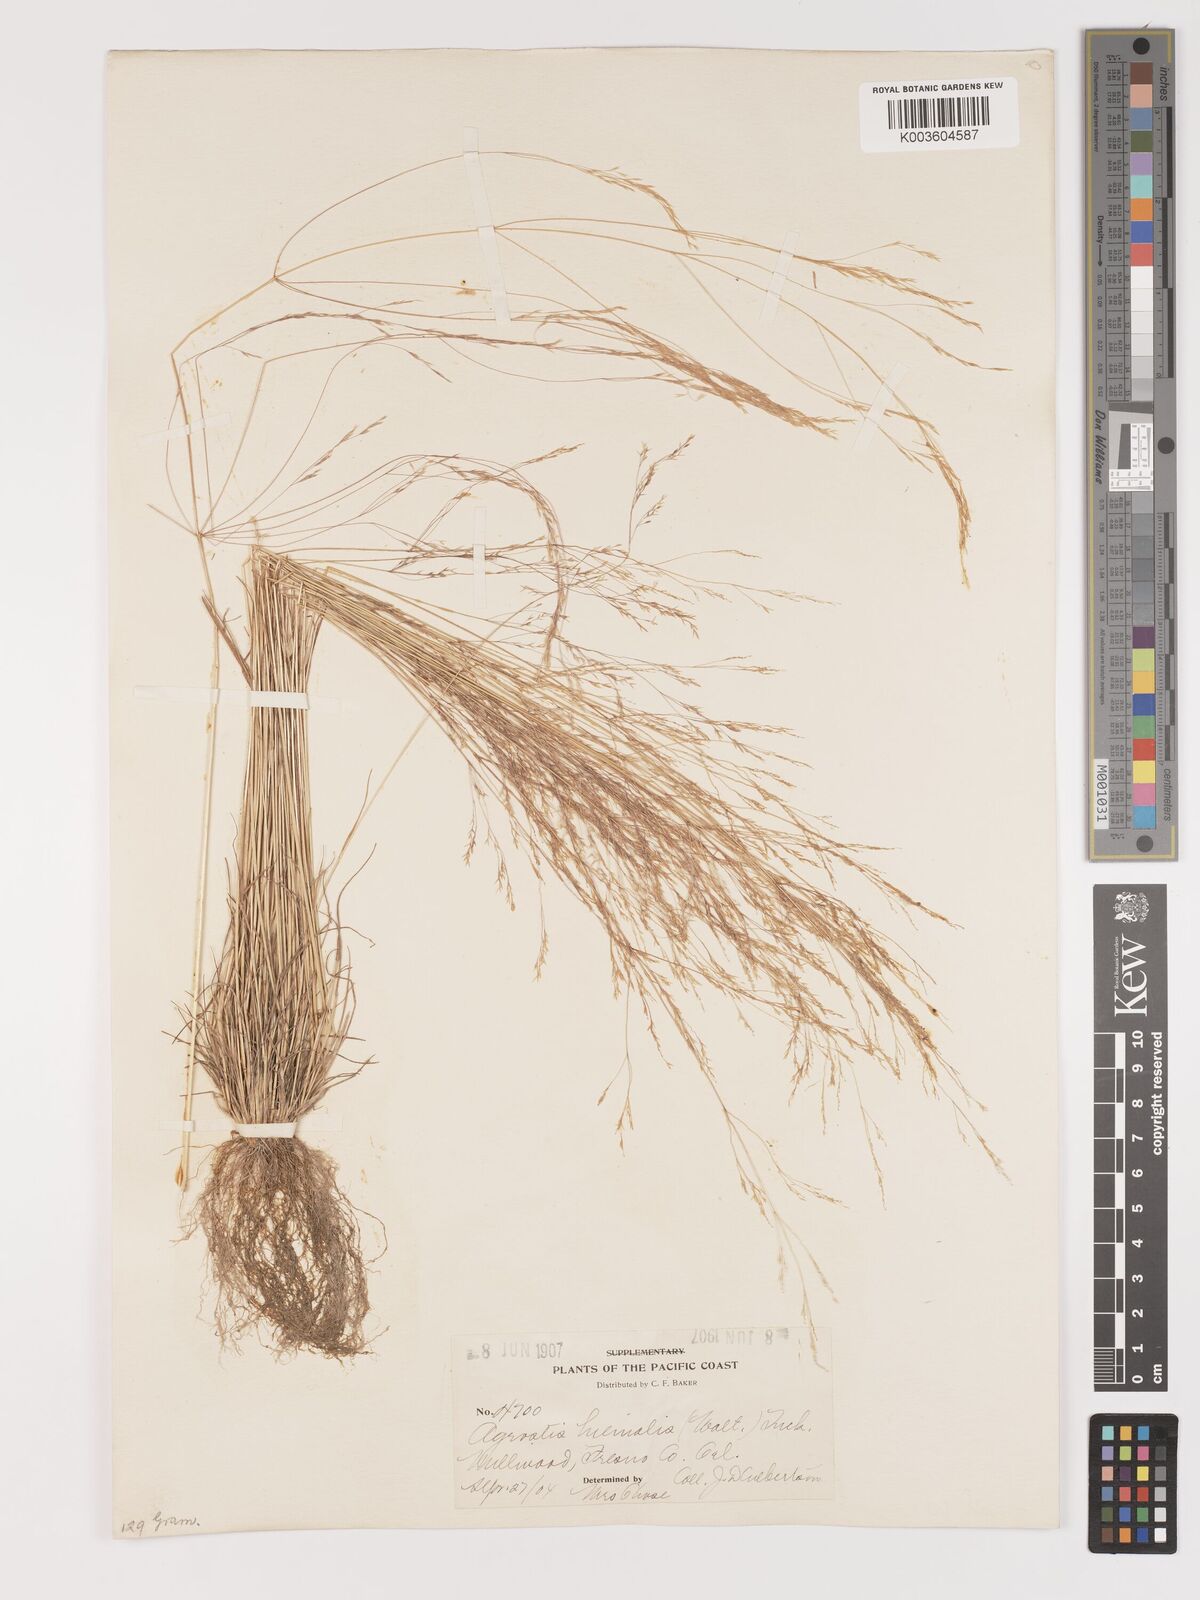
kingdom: Plantae
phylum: Tracheophyta
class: Liliopsida
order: Poales
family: Poaceae
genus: Agrostis
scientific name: Agrostis hyemalis
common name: Small bent
